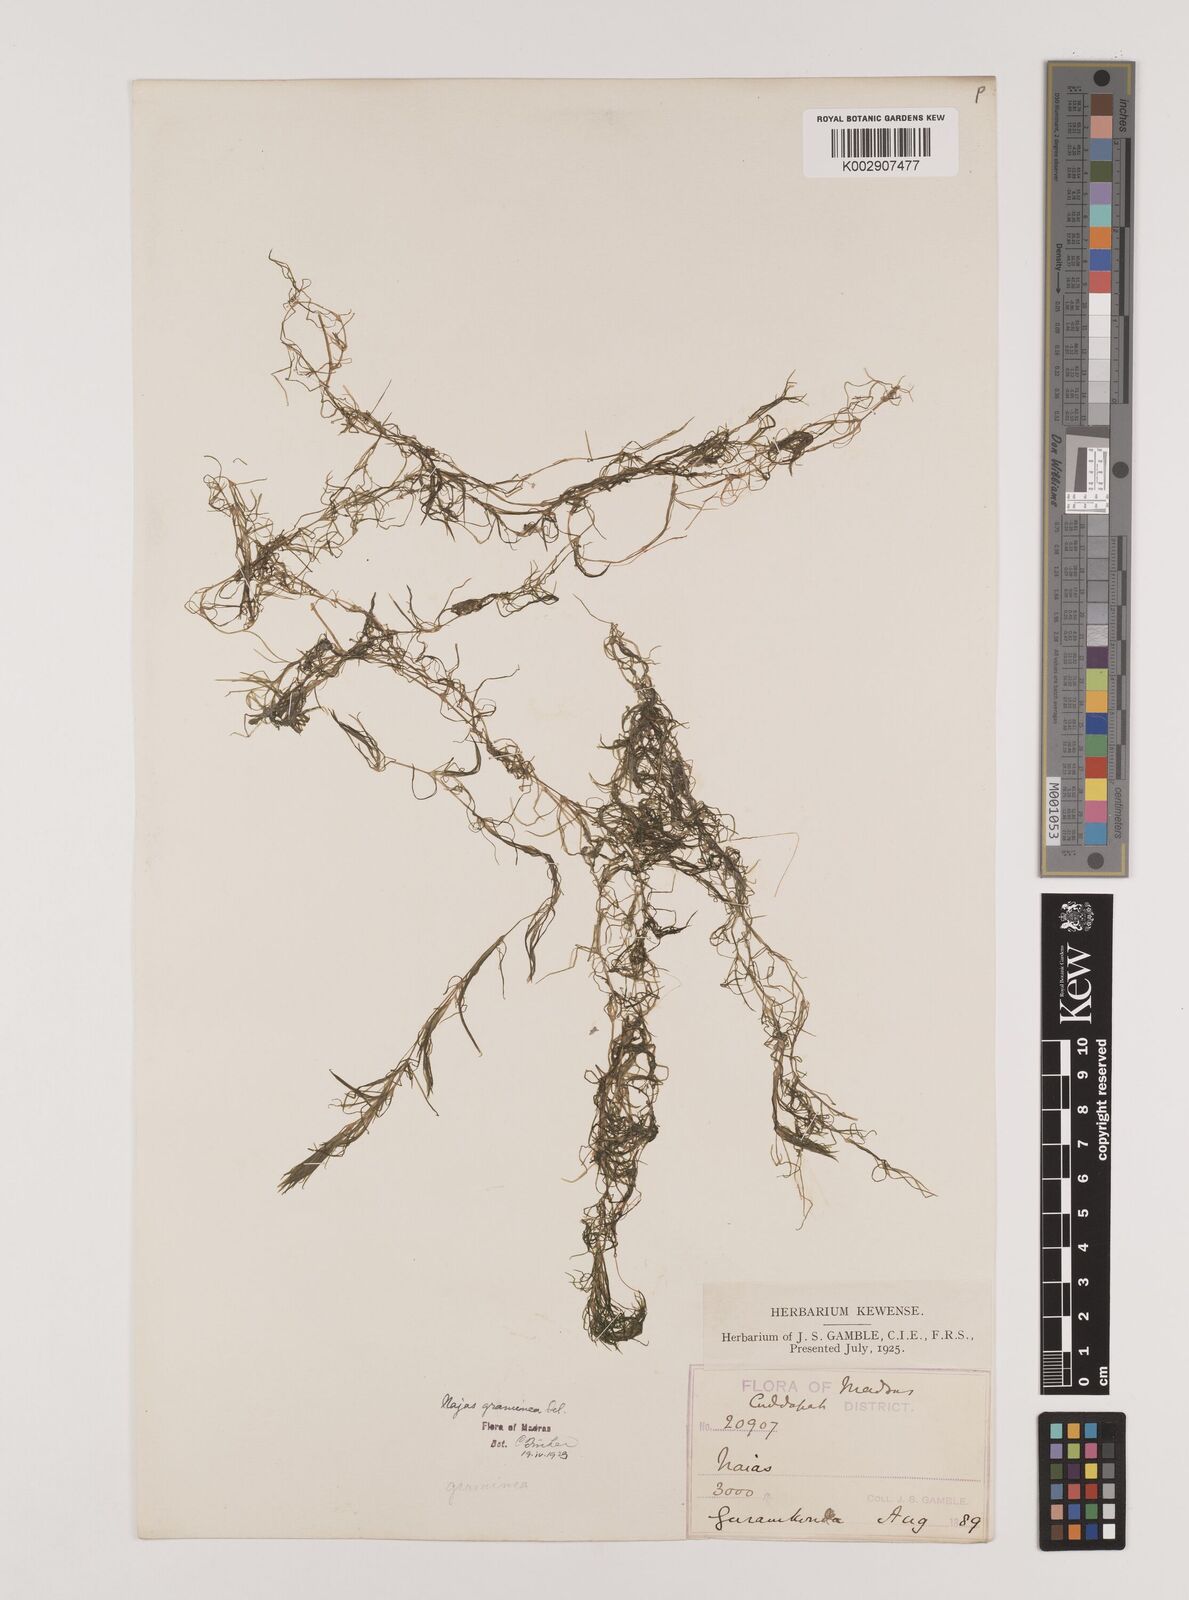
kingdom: Plantae
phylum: Tracheophyta
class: Liliopsida
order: Alismatales
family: Hydrocharitaceae
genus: Najas
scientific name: Najas graminea
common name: Ricefield waternymph
